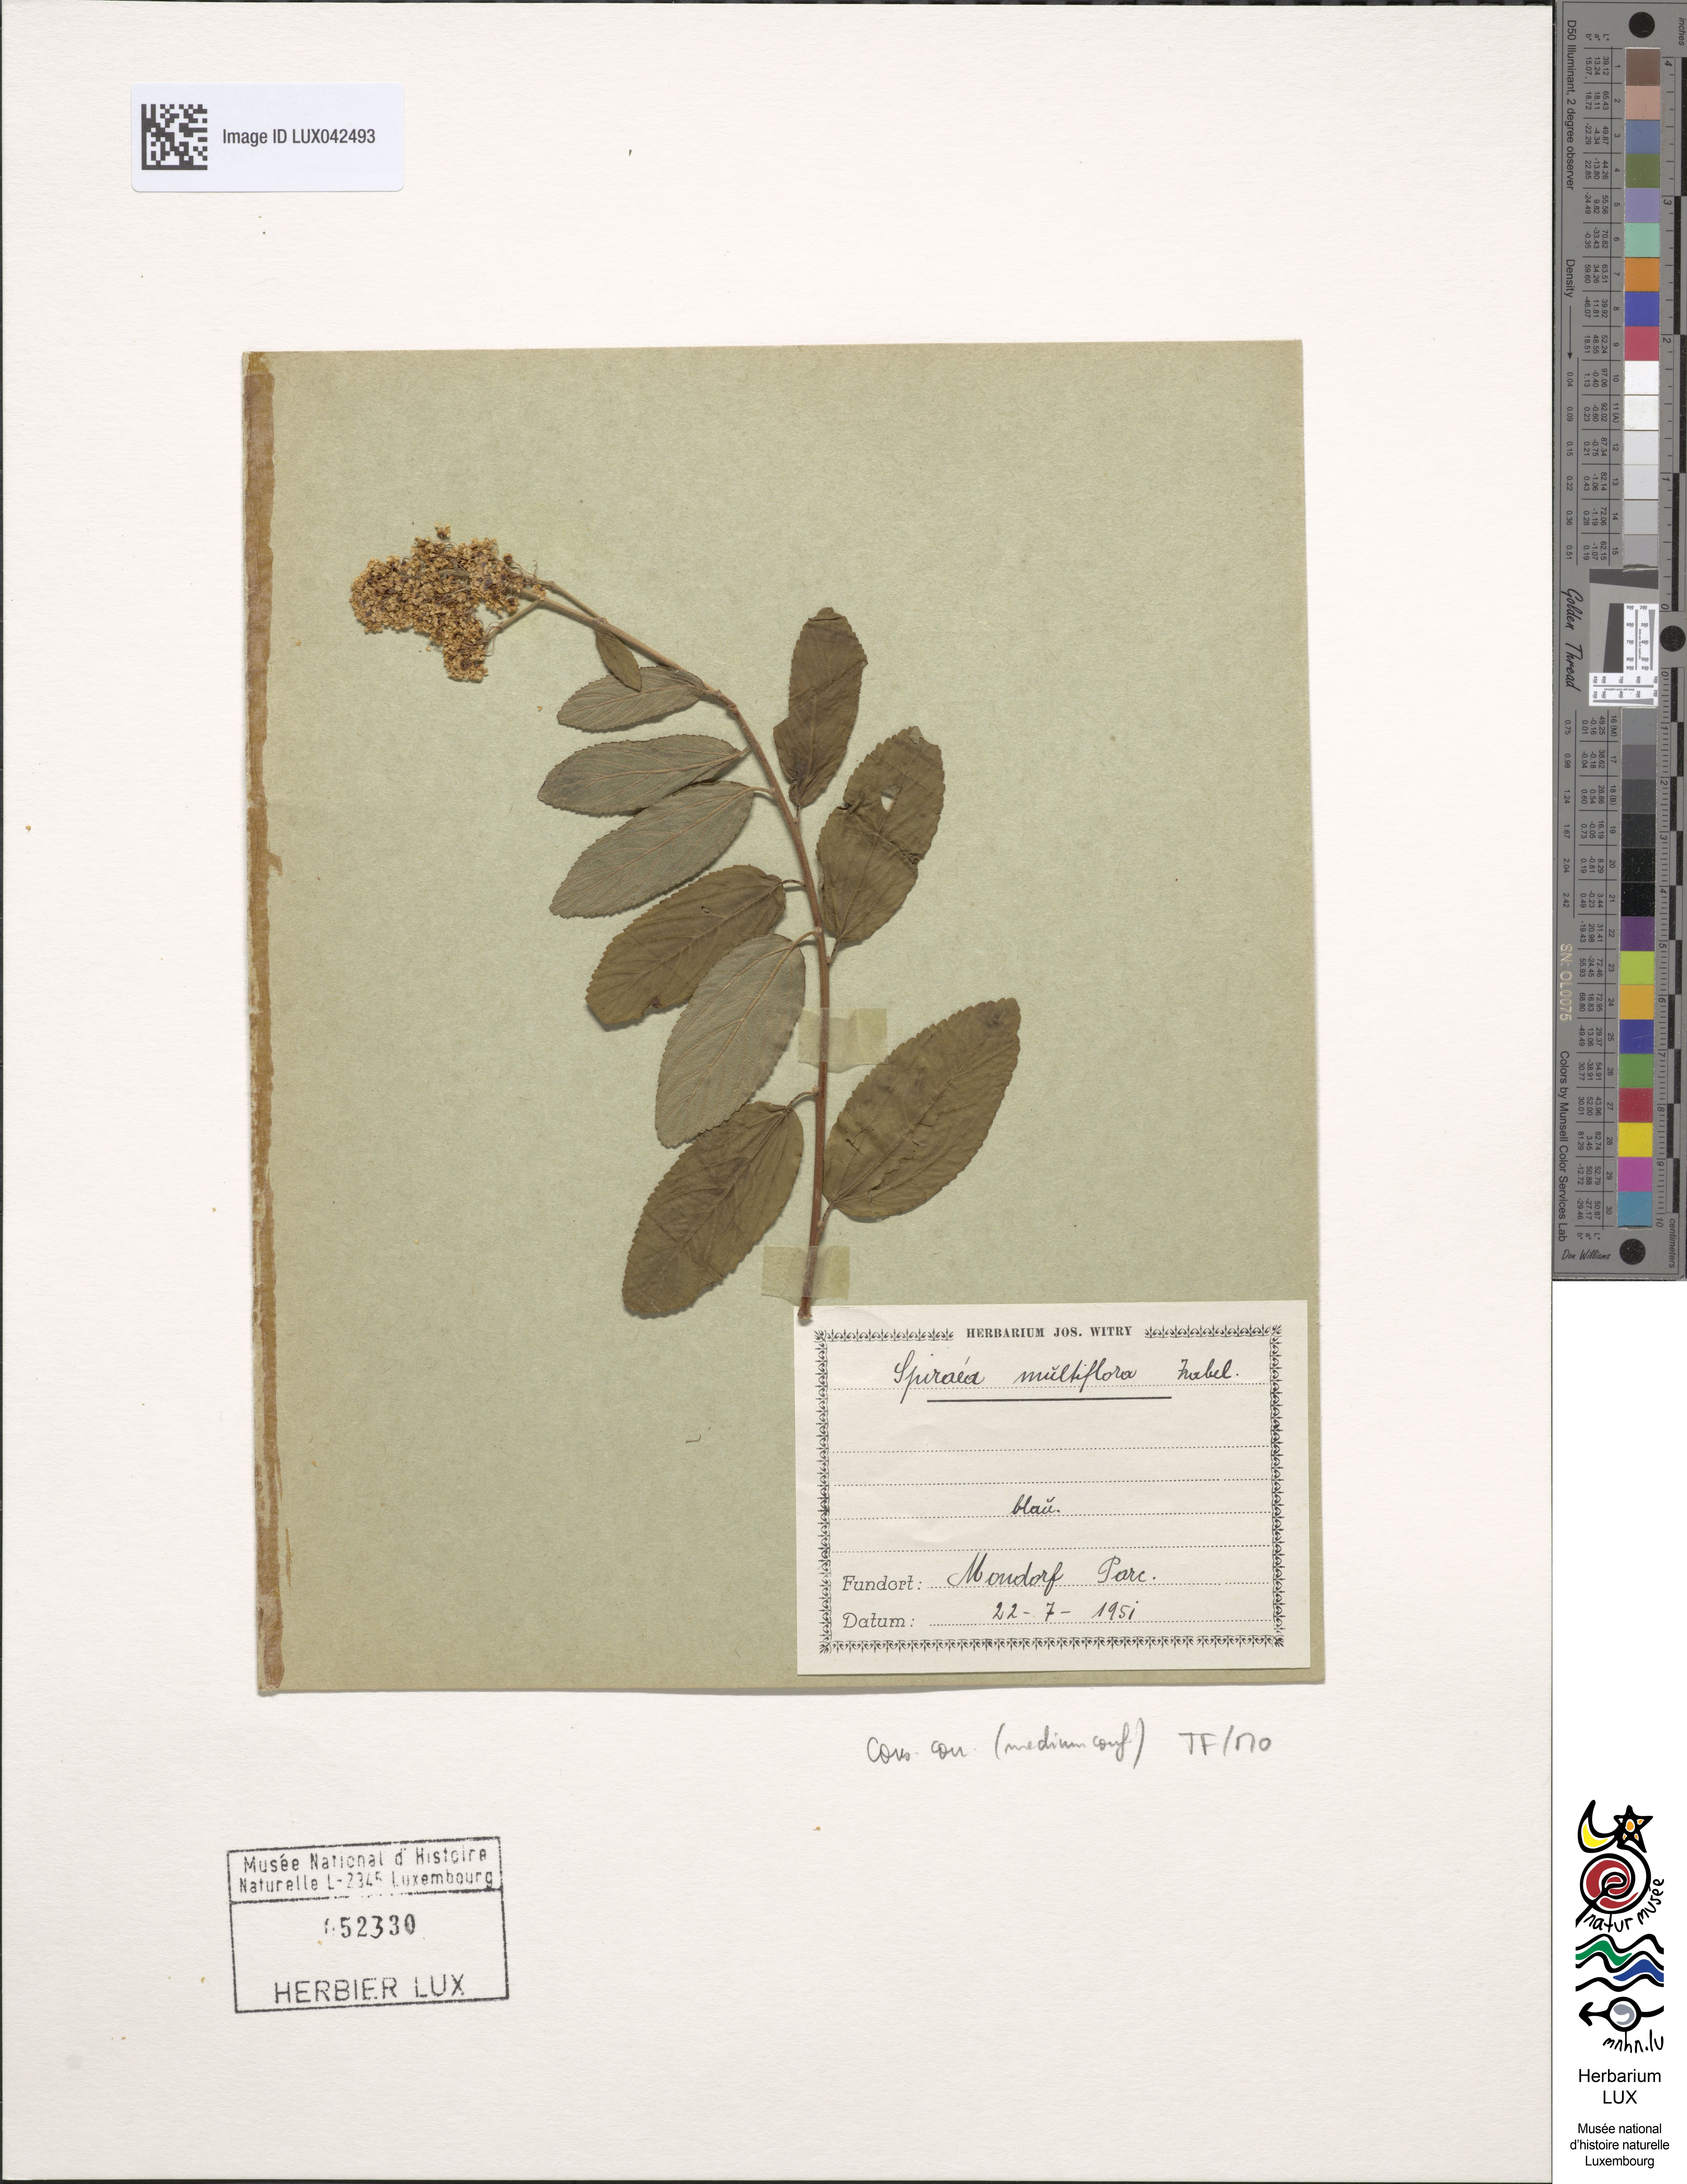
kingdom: Plantae
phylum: Tracheophyta
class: Magnoliopsida
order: Rosales
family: Rosaceae
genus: Spiraea
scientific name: Spiraea multiflora
